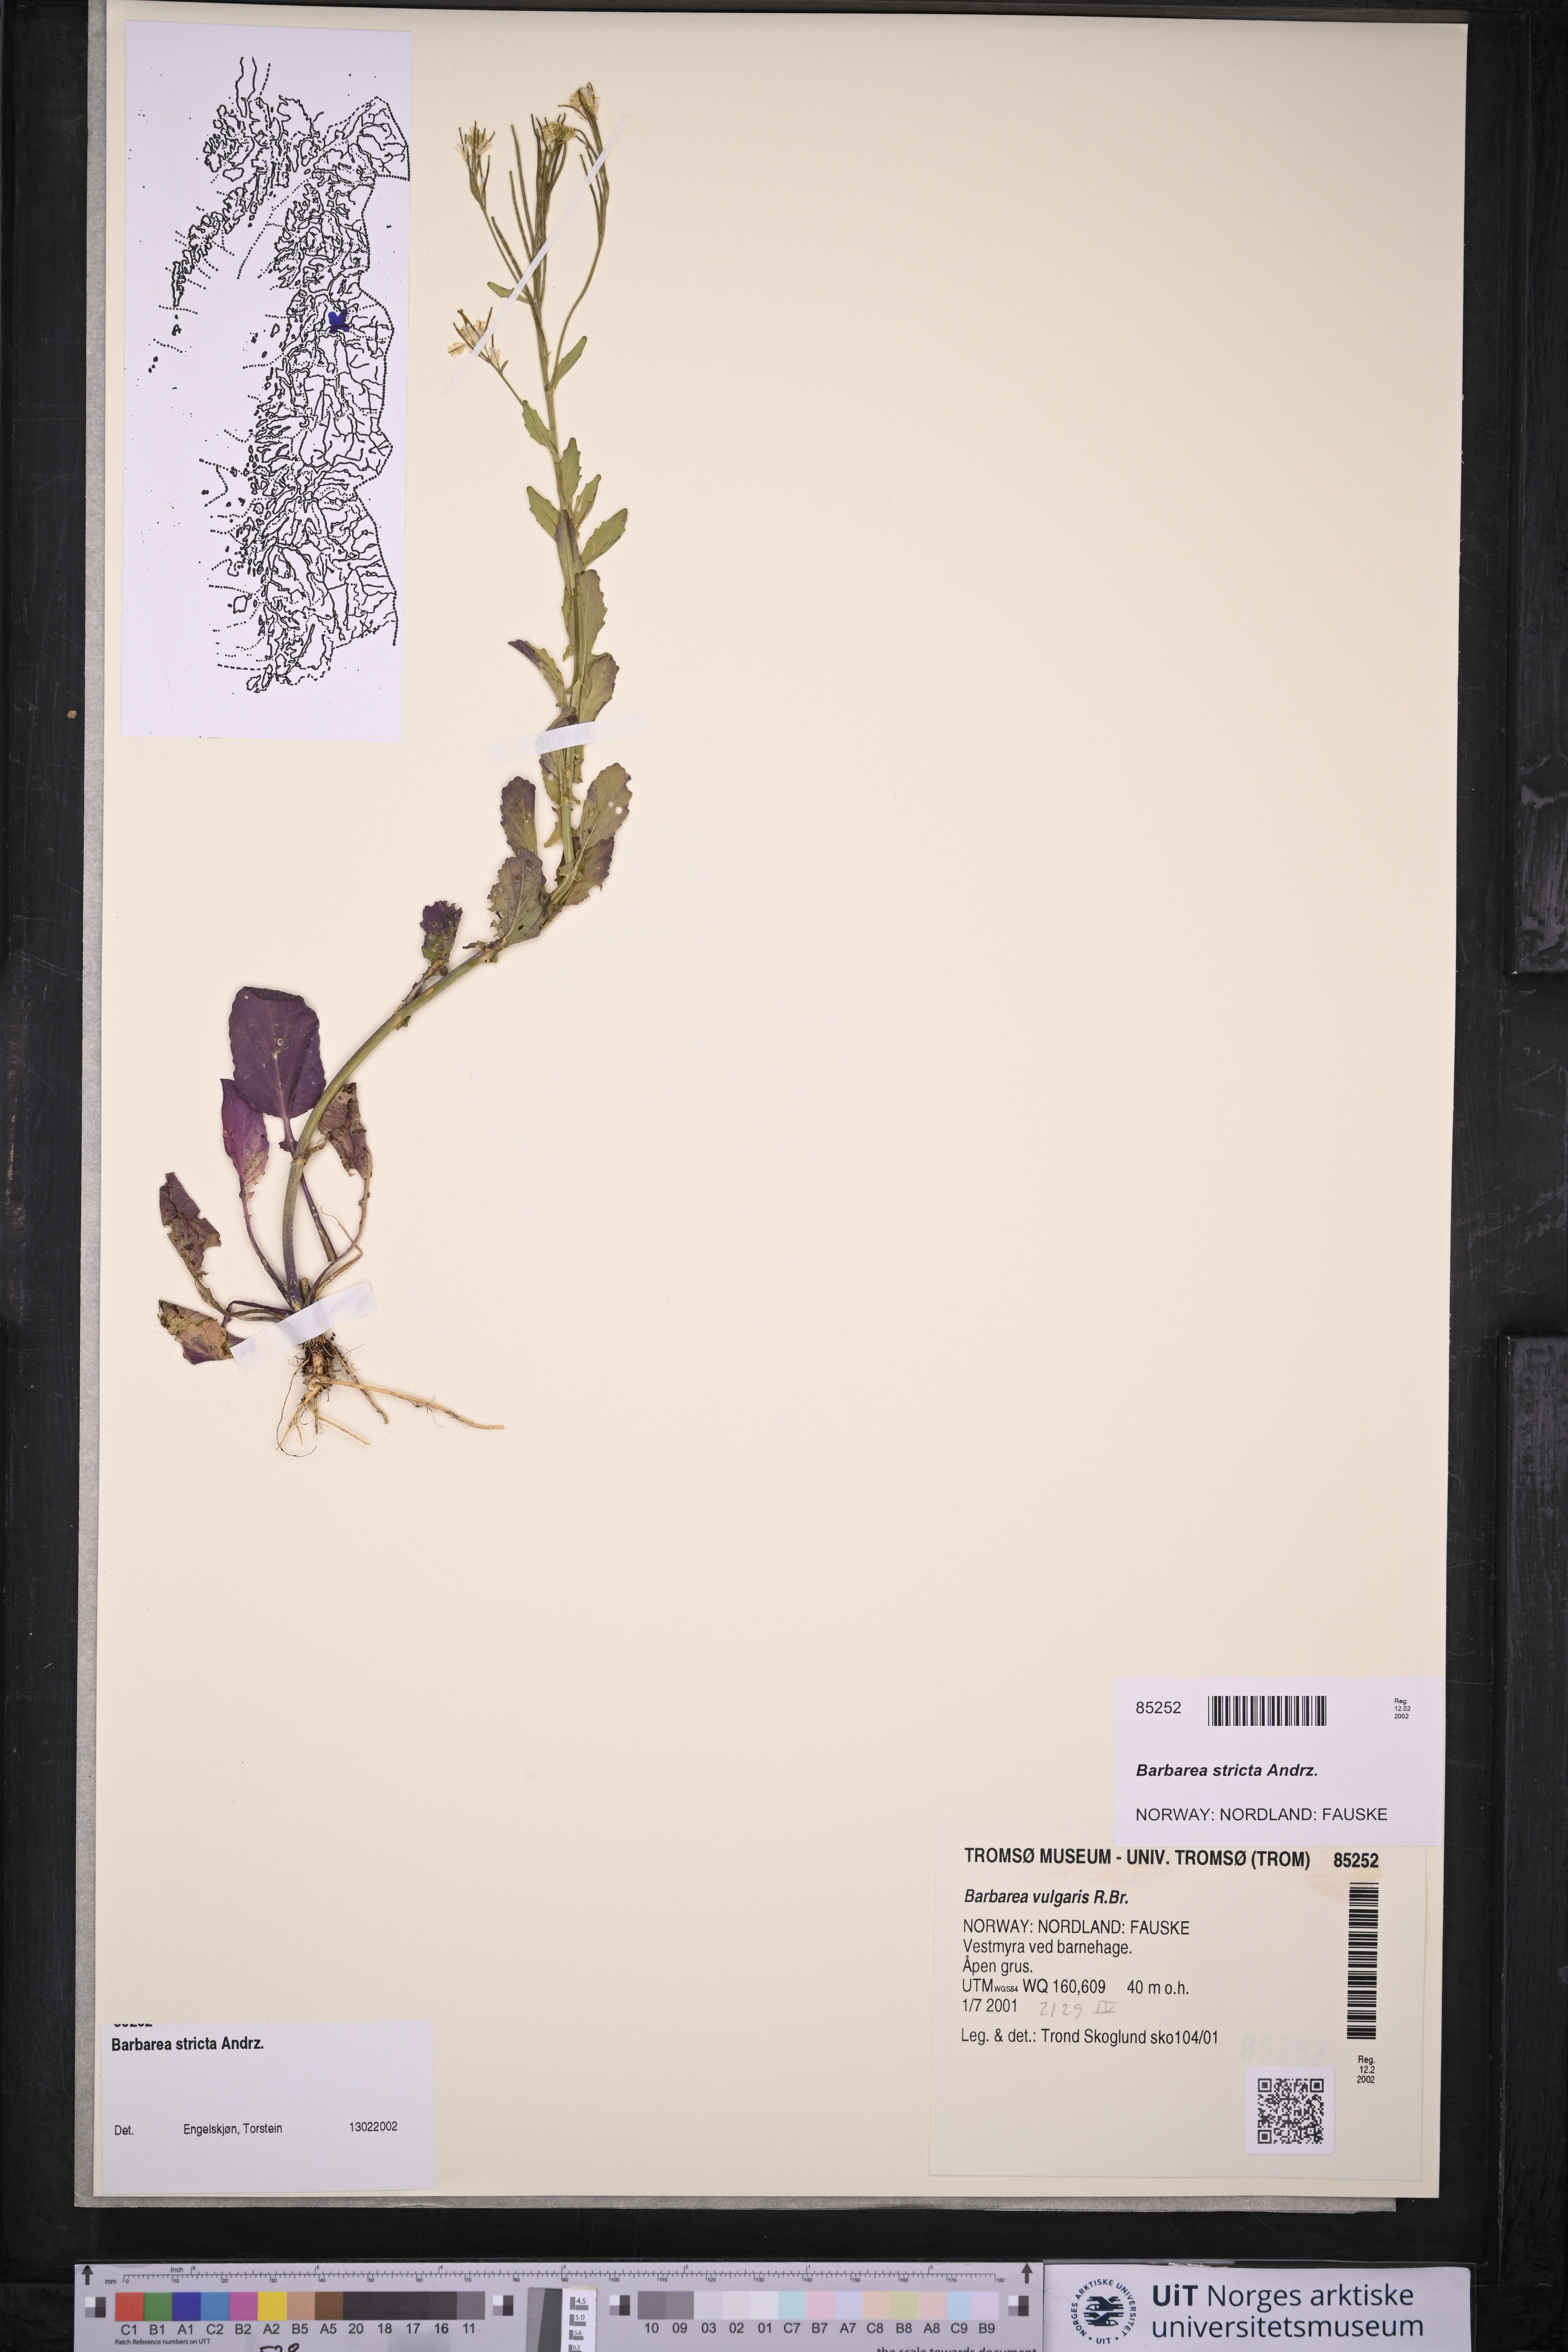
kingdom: Plantae
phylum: Tracheophyta
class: Magnoliopsida
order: Brassicales
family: Brassicaceae
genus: Barbarea
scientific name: Barbarea stricta
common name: Small-flowered winter-cress
